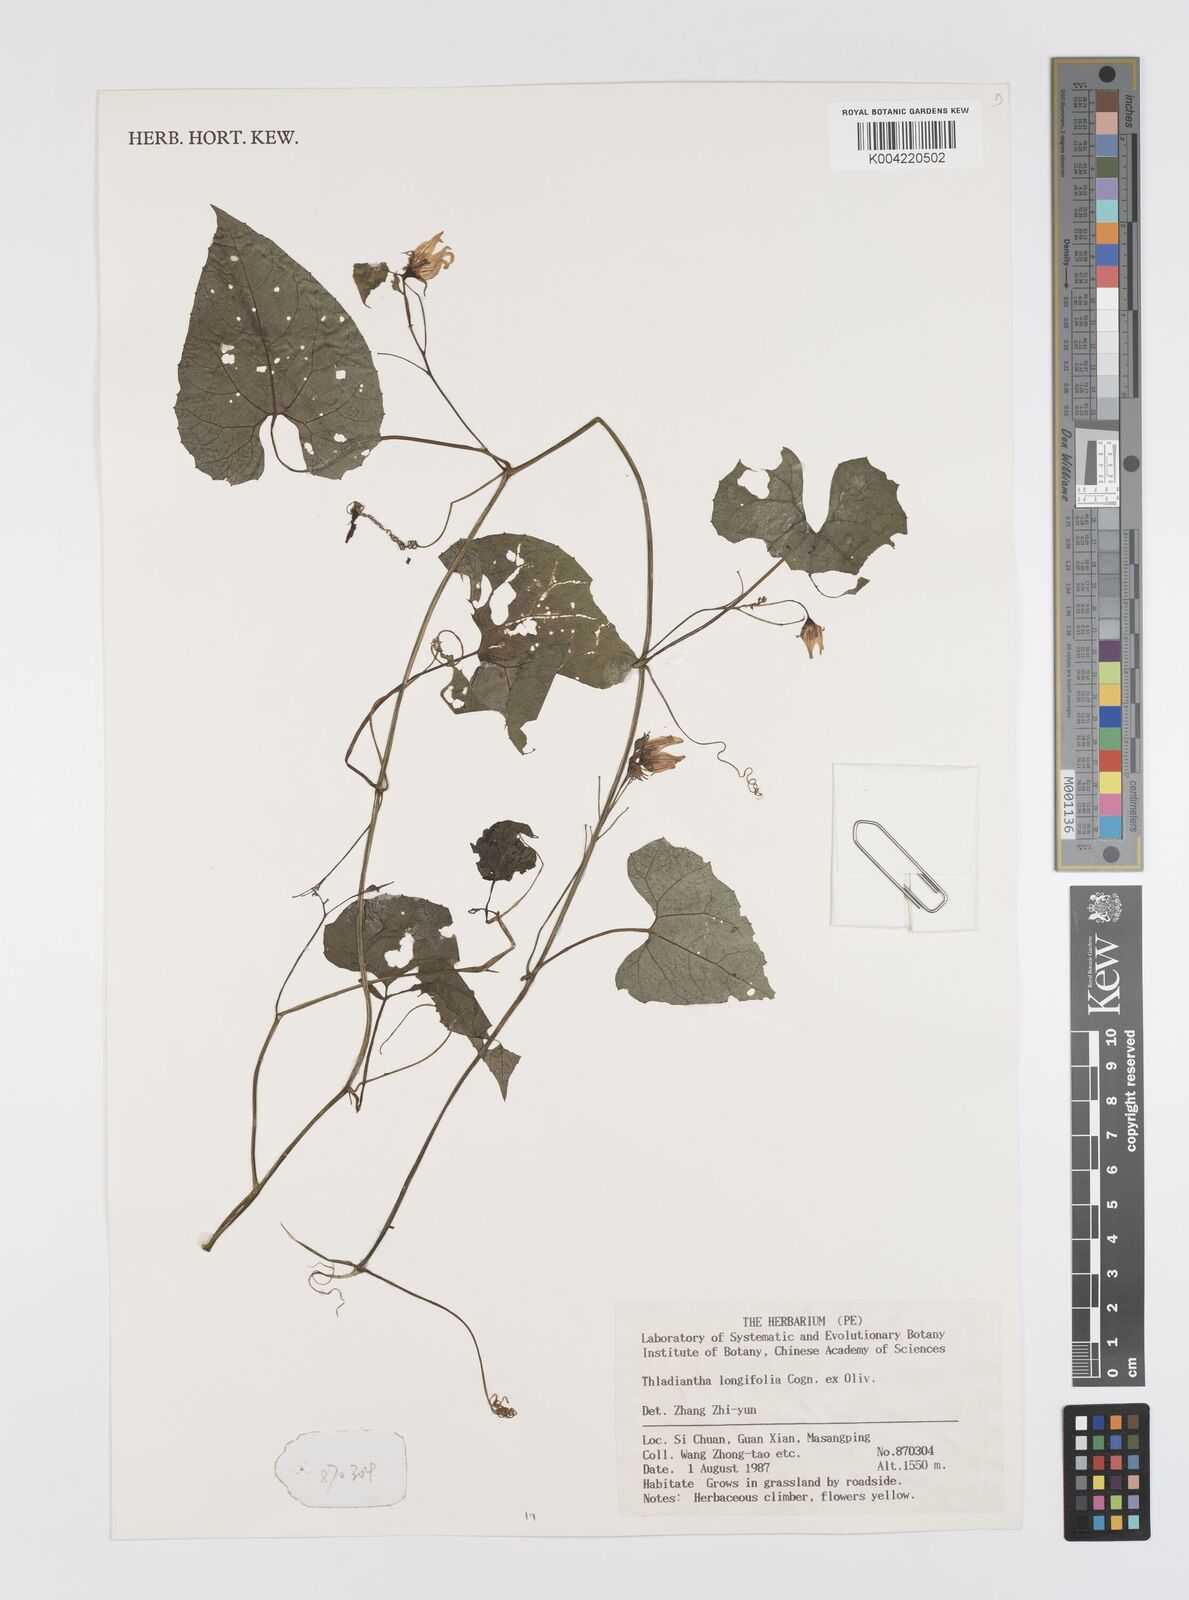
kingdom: Plantae
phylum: Tracheophyta
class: Magnoliopsida
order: Cucurbitales
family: Cucurbitaceae
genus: Thladiantha
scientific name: Thladiantha longifolia
